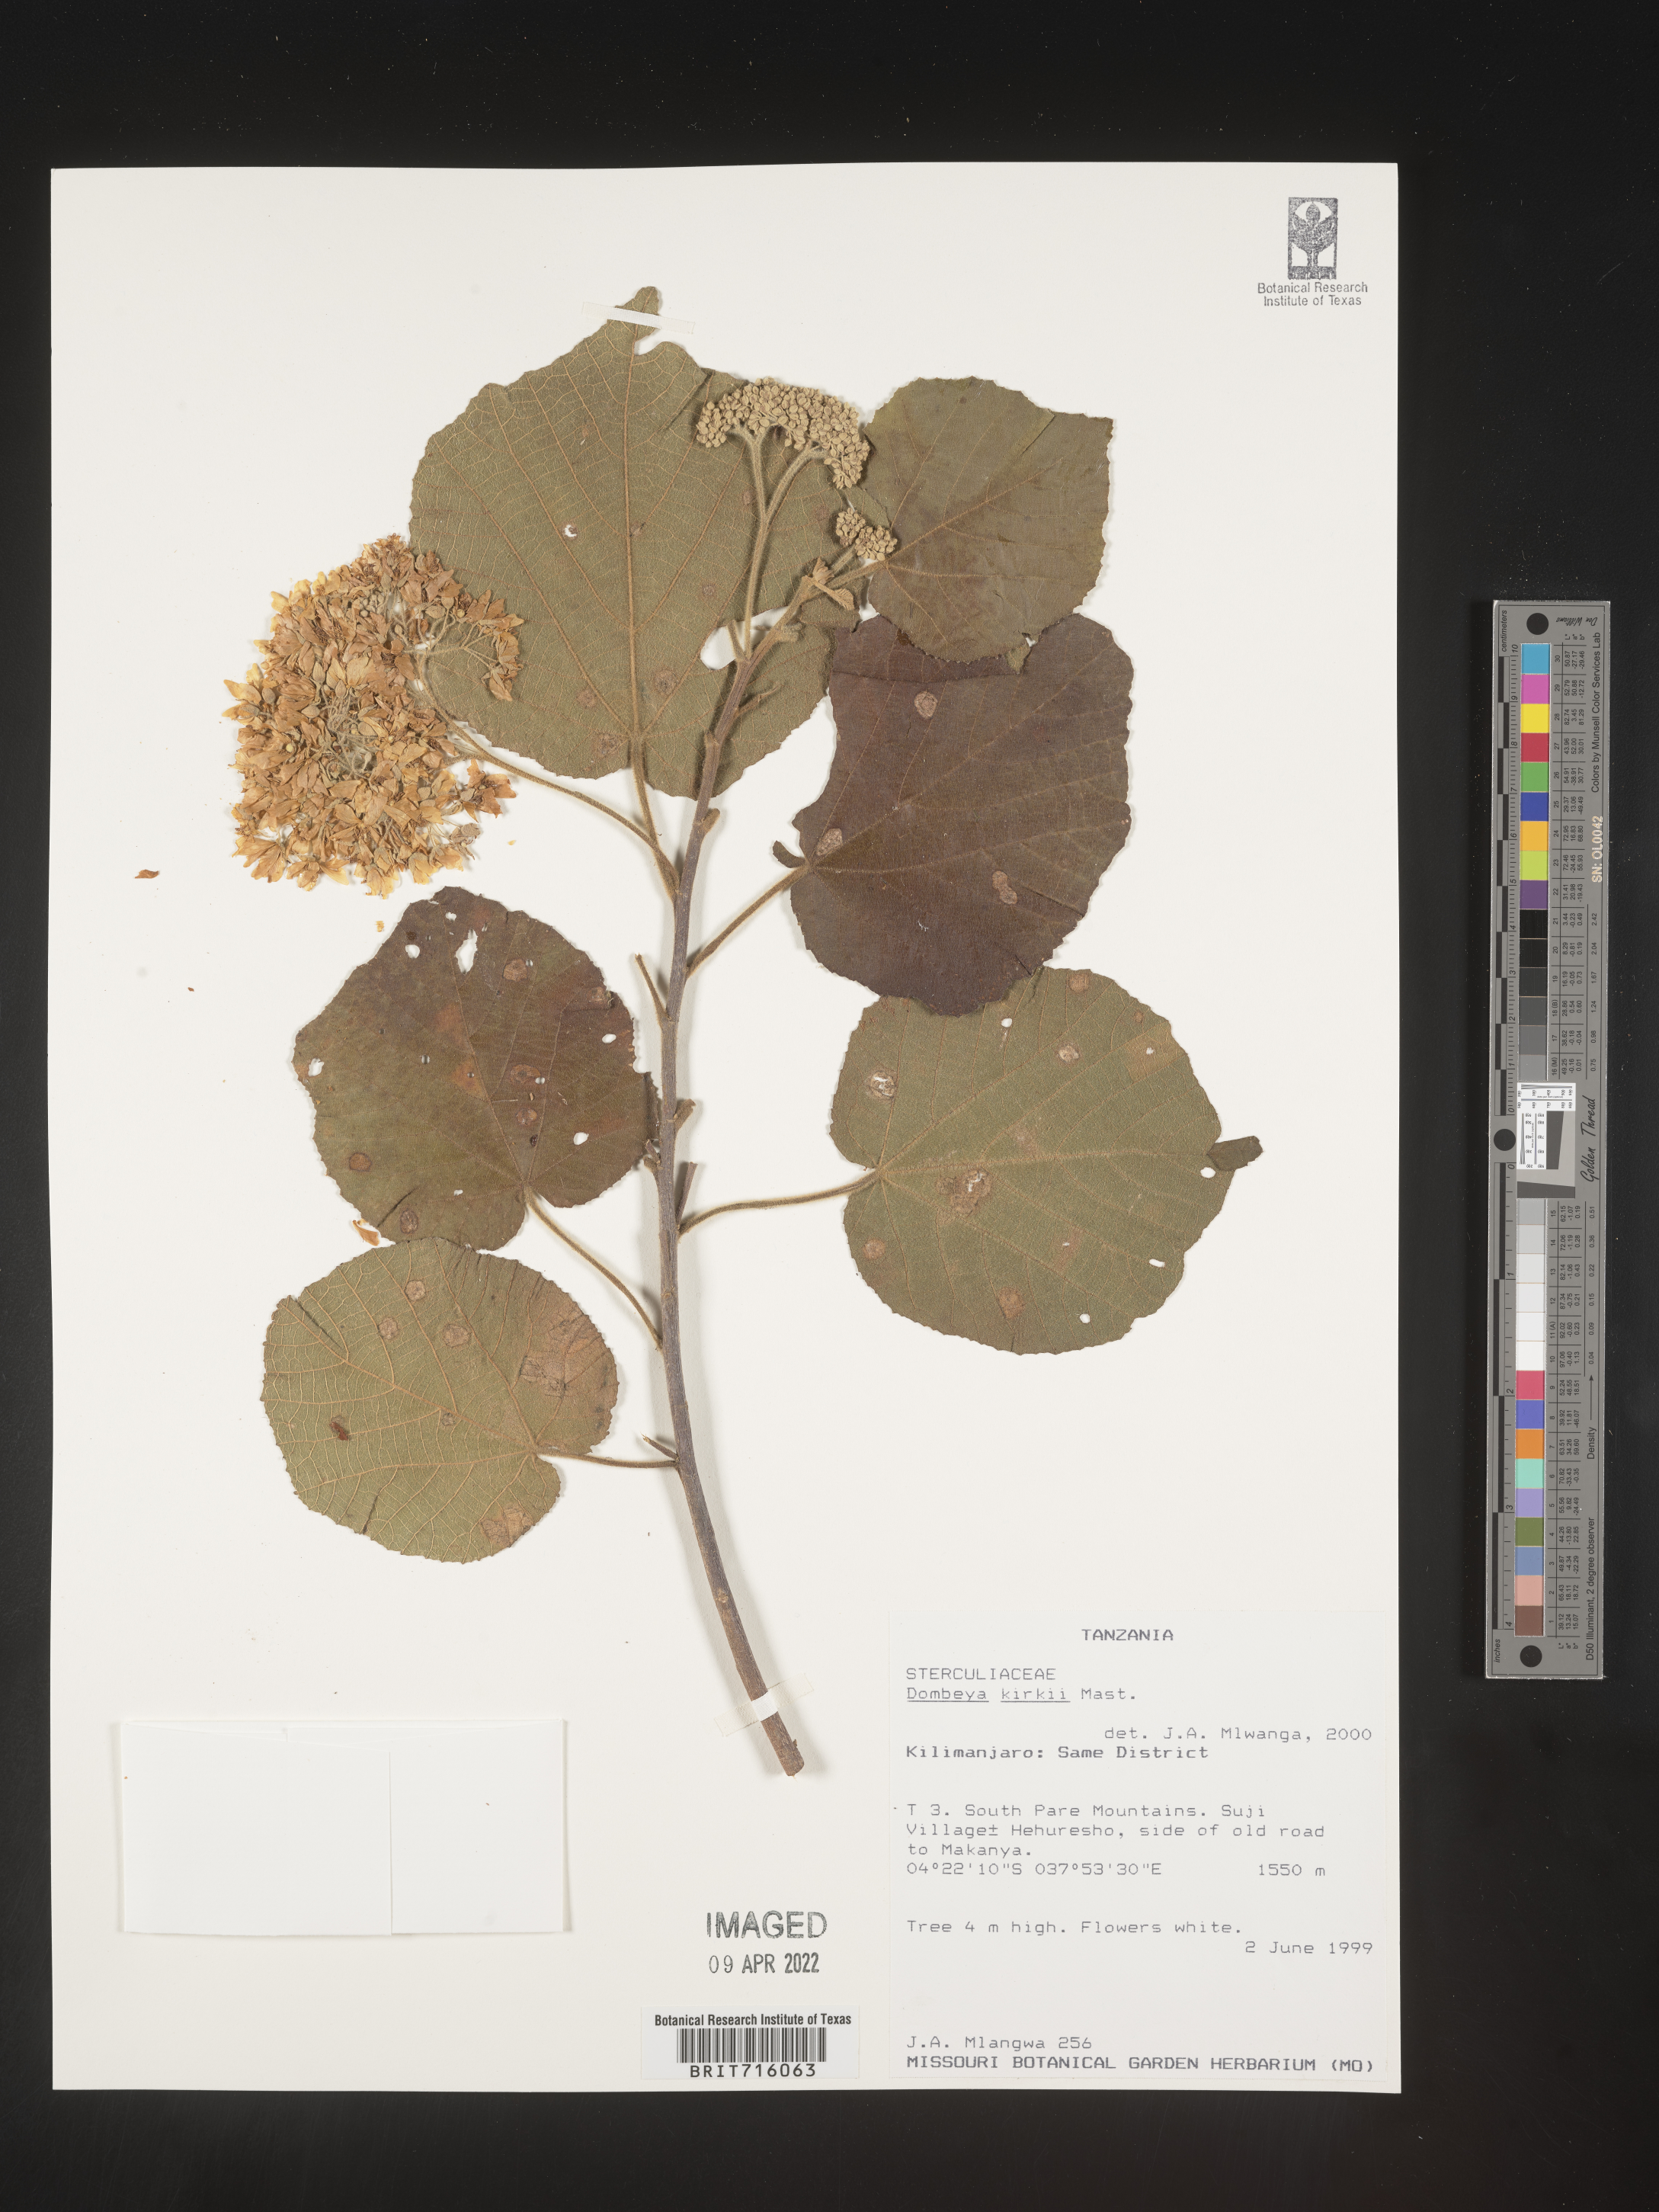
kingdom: Plantae
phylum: Tracheophyta
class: Magnoliopsida
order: Malvales
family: Malvaceae
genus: Dombeya
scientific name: Dombeya
